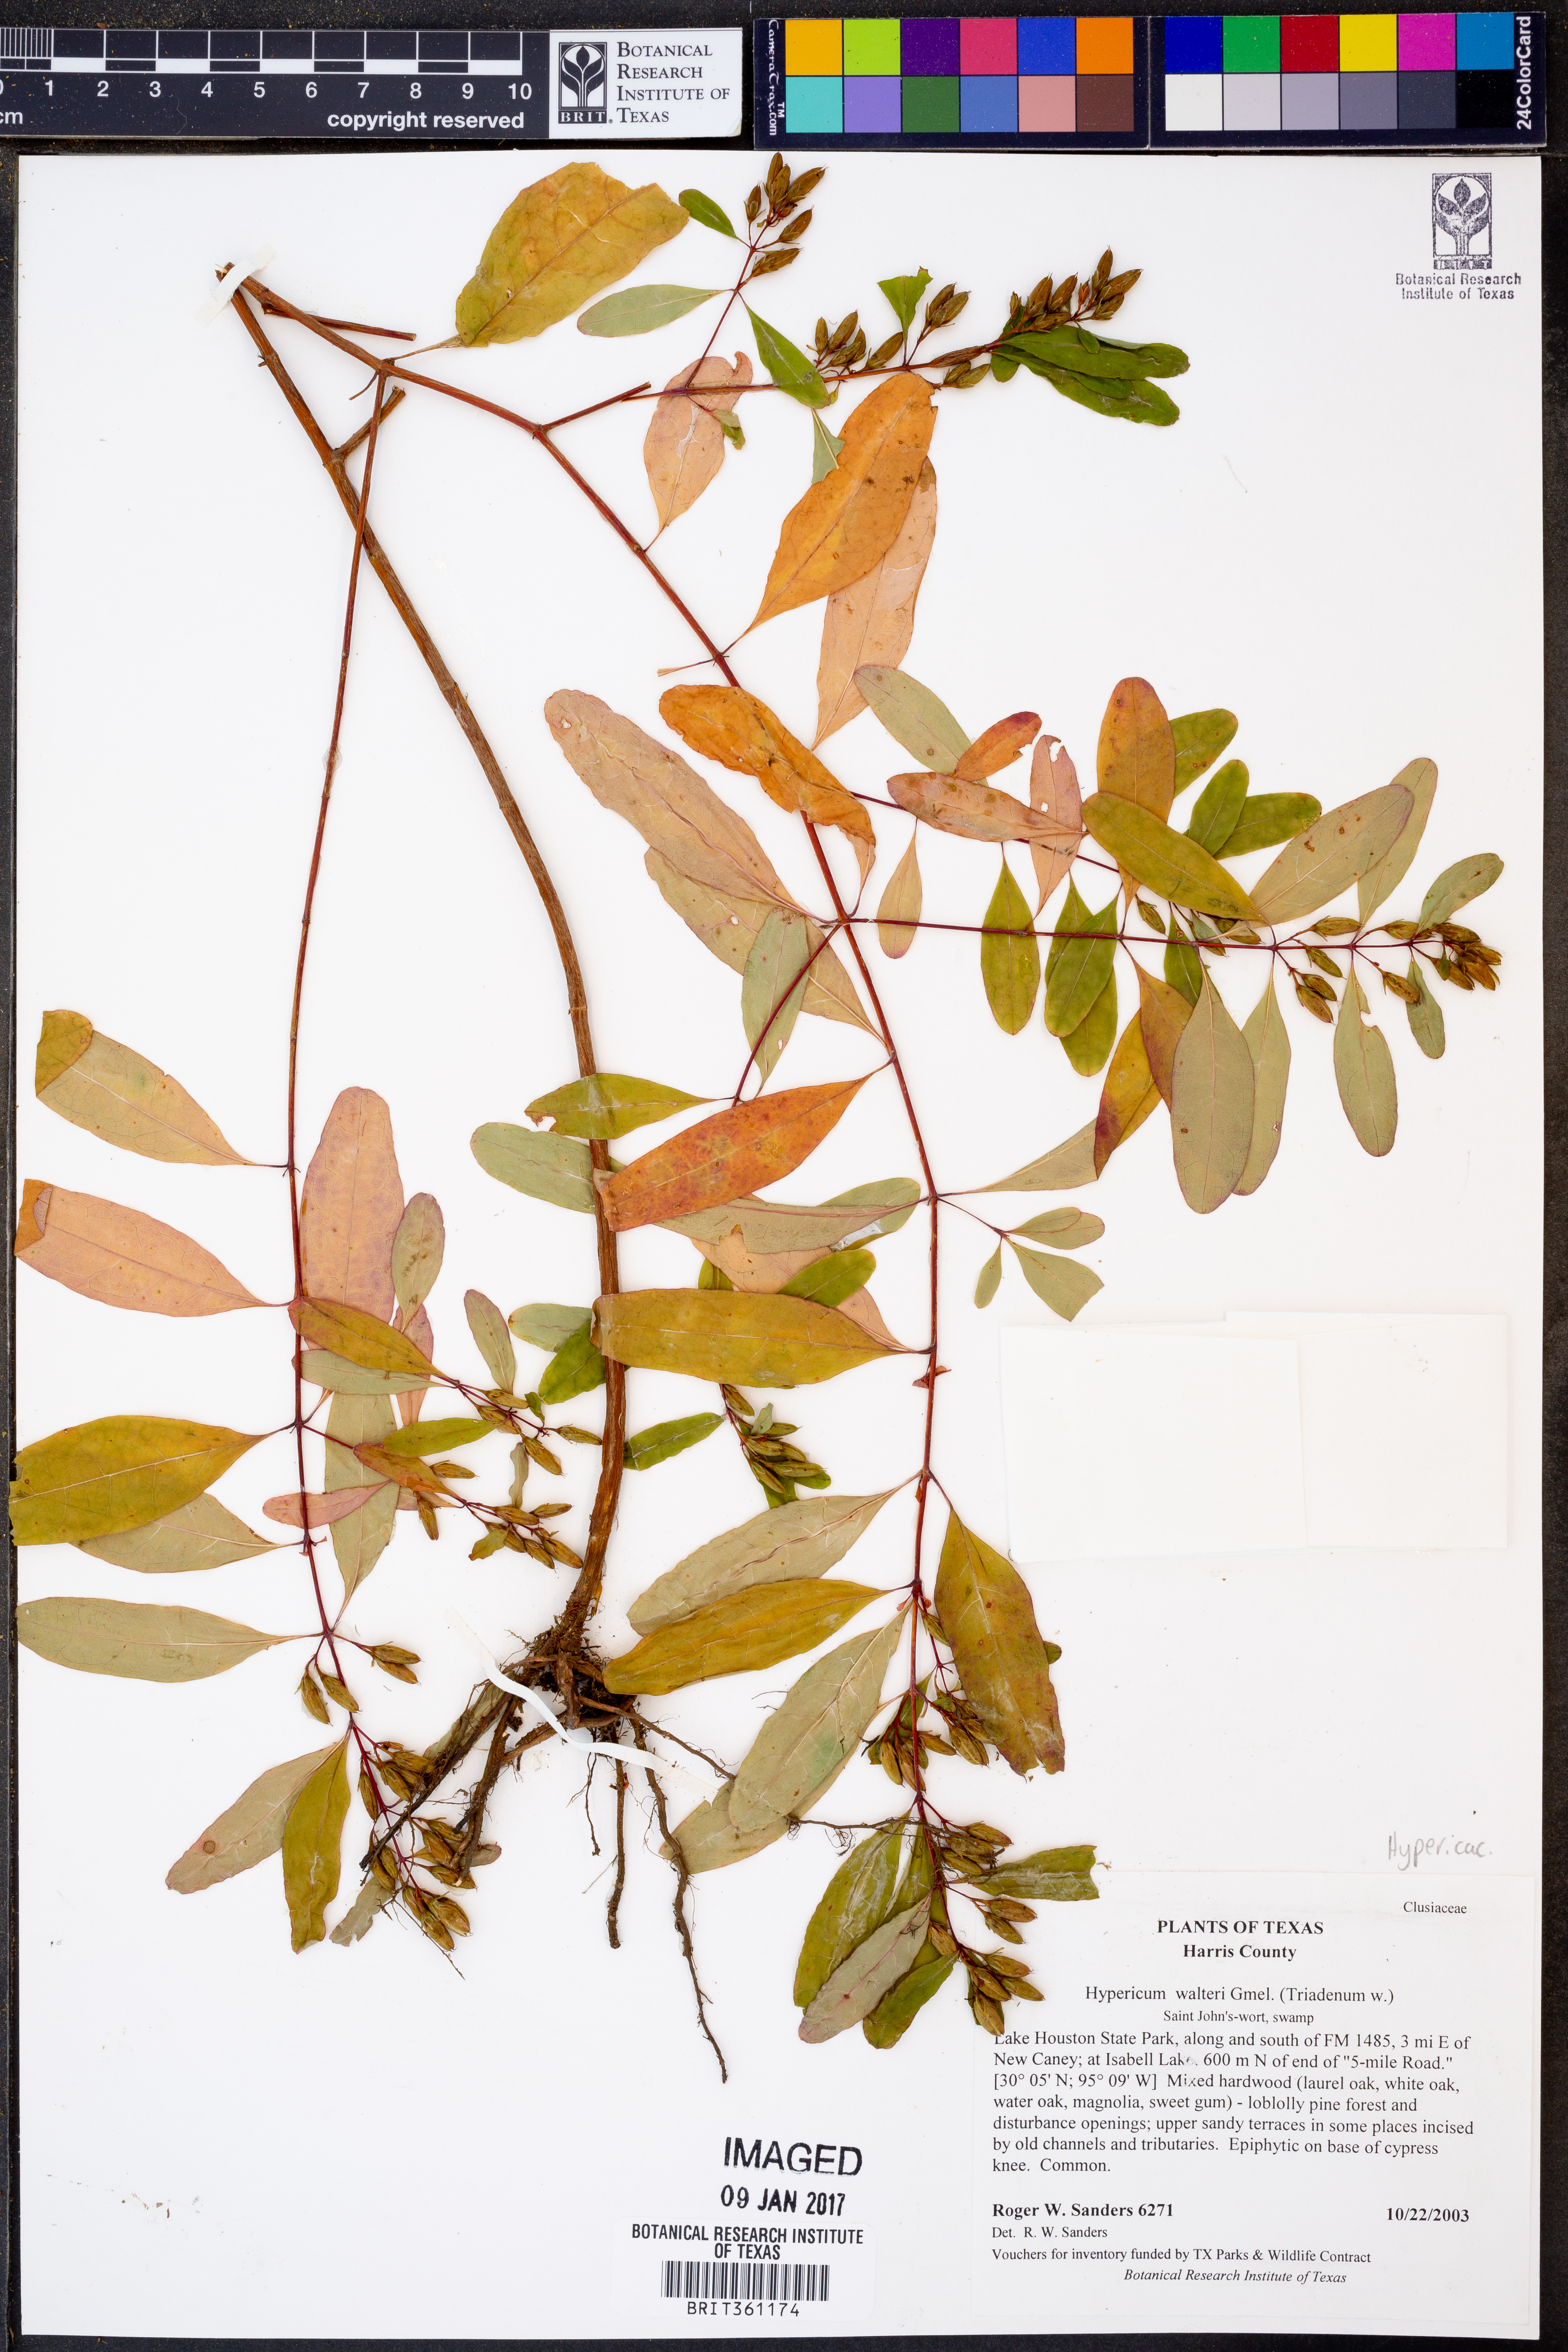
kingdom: Plantae
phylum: Tracheophyta
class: Magnoliopsida
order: Malpighiales
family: Hypericaceae
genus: Triadenum
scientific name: Triadenum walteri
